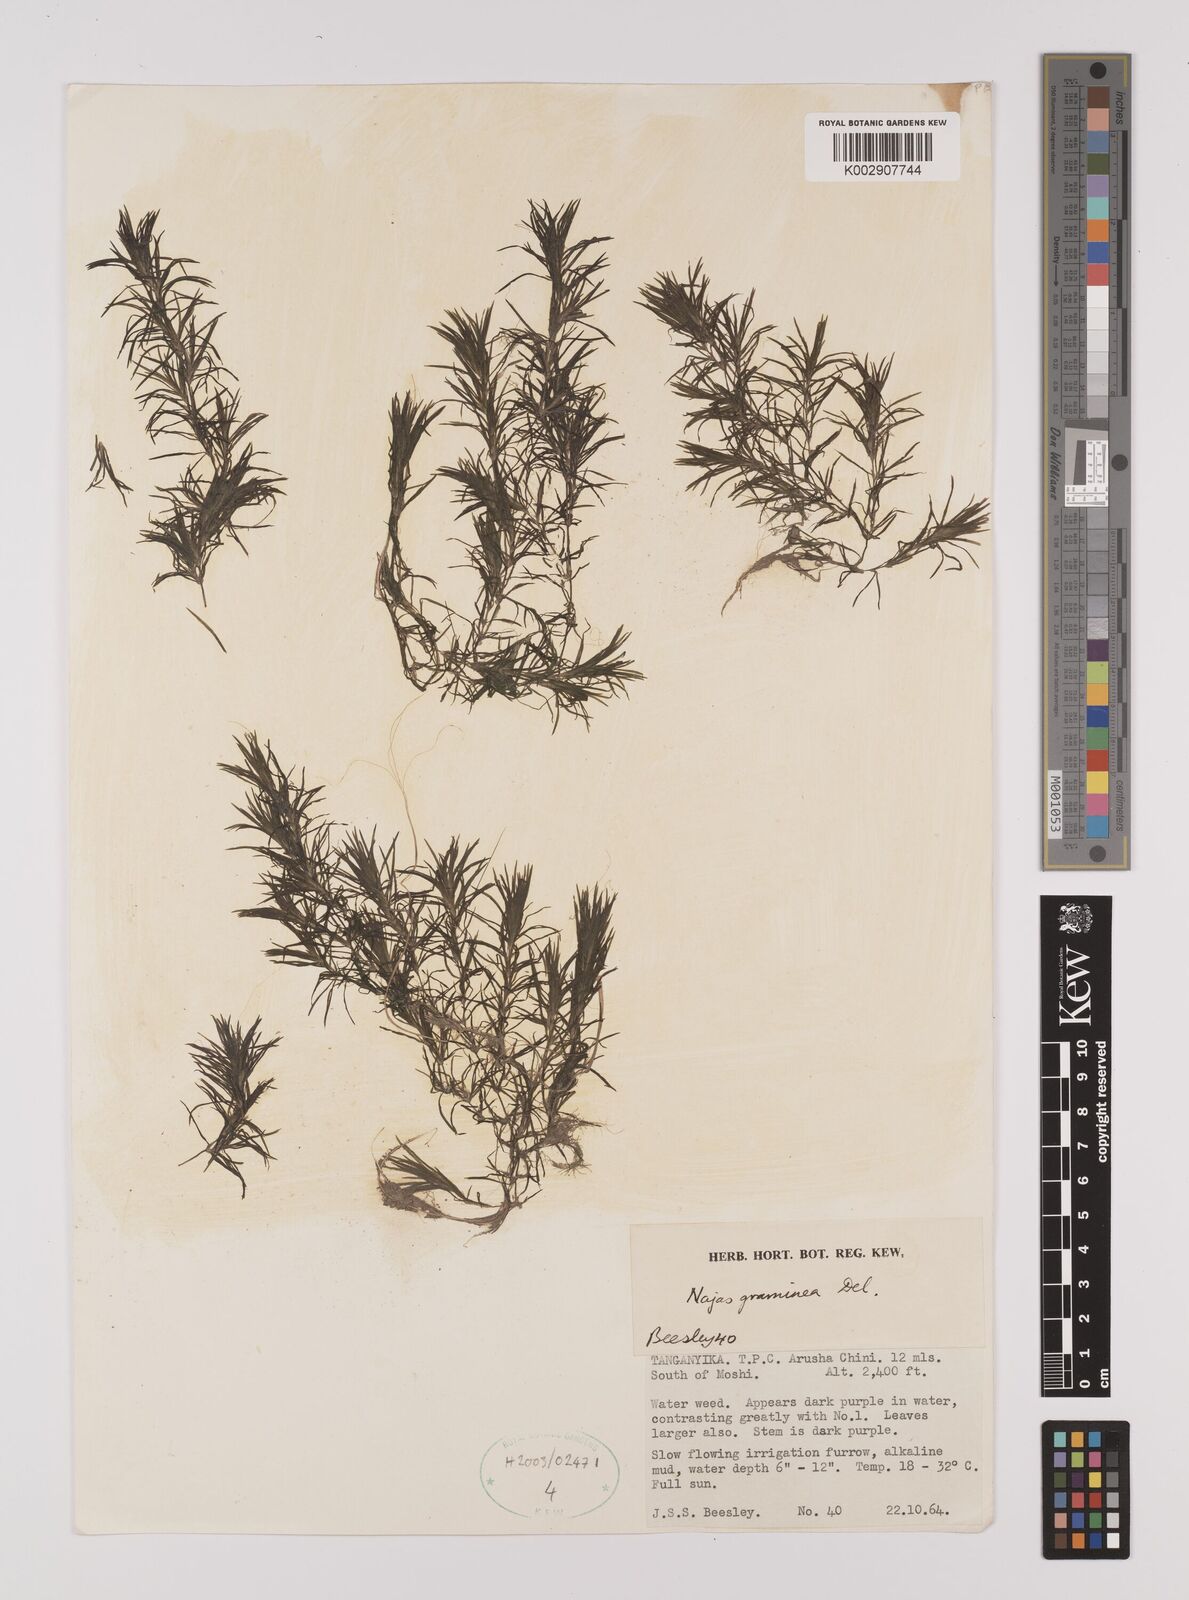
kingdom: Plantae
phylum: Tracheophyta
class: Liliopsida
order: Alismatales
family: Hydrocharitaceae
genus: Najas
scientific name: Najas graminea
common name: Ricefield waternymph
